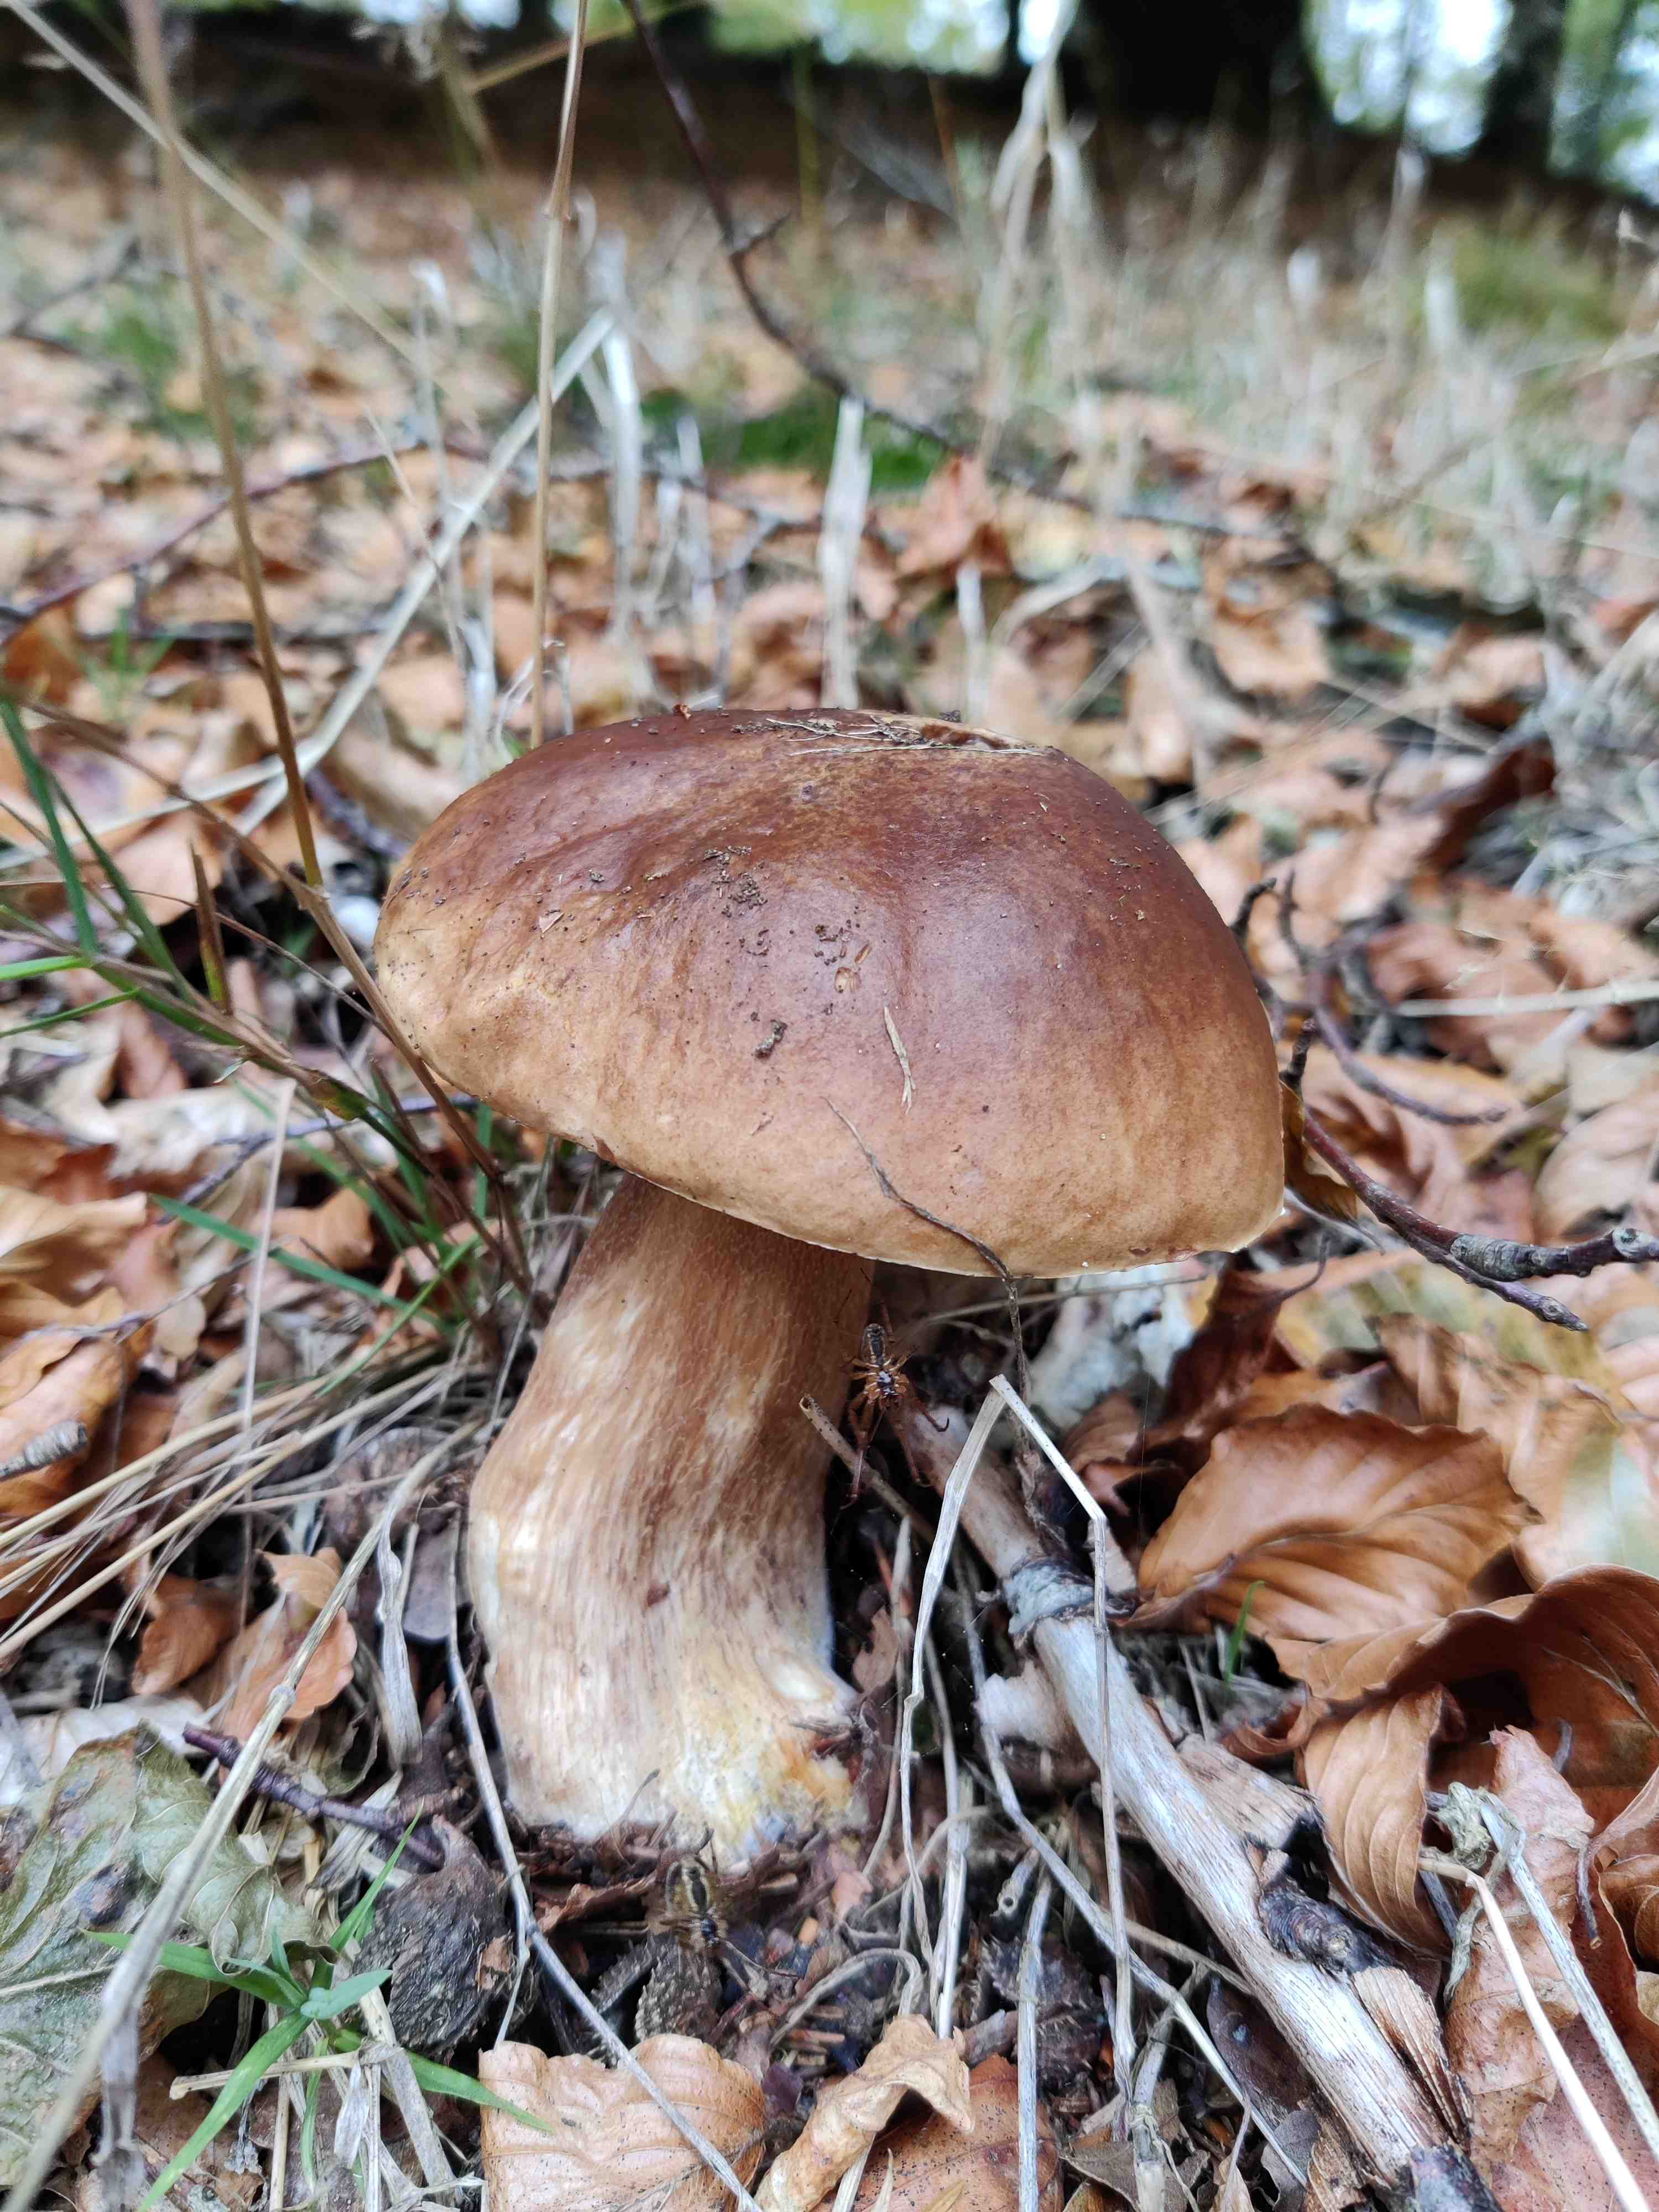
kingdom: Fungi
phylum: Basidiomycota
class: Agaricomycetes
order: Boletales
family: Boletaceae
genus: Boletus
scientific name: Boletus edulis
